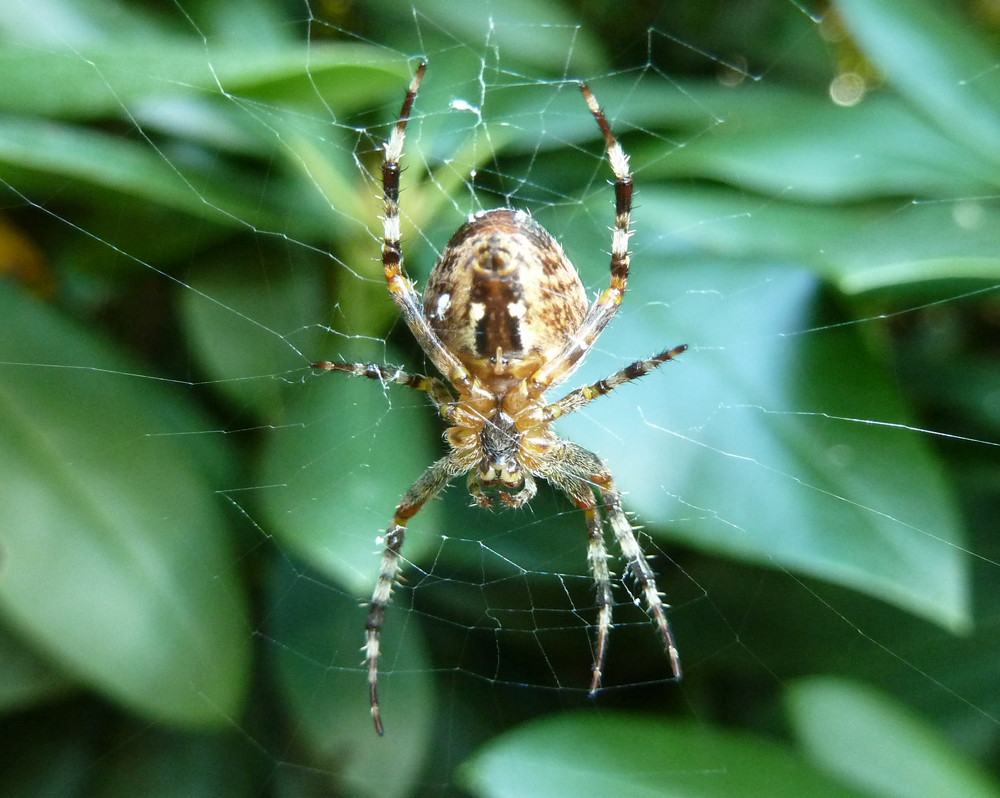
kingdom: Animalia
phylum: Arthropoda
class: Arachnida
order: Araneae
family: Araneidae
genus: Araneus
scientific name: Araneus diadematus
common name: Cross orbweaver
